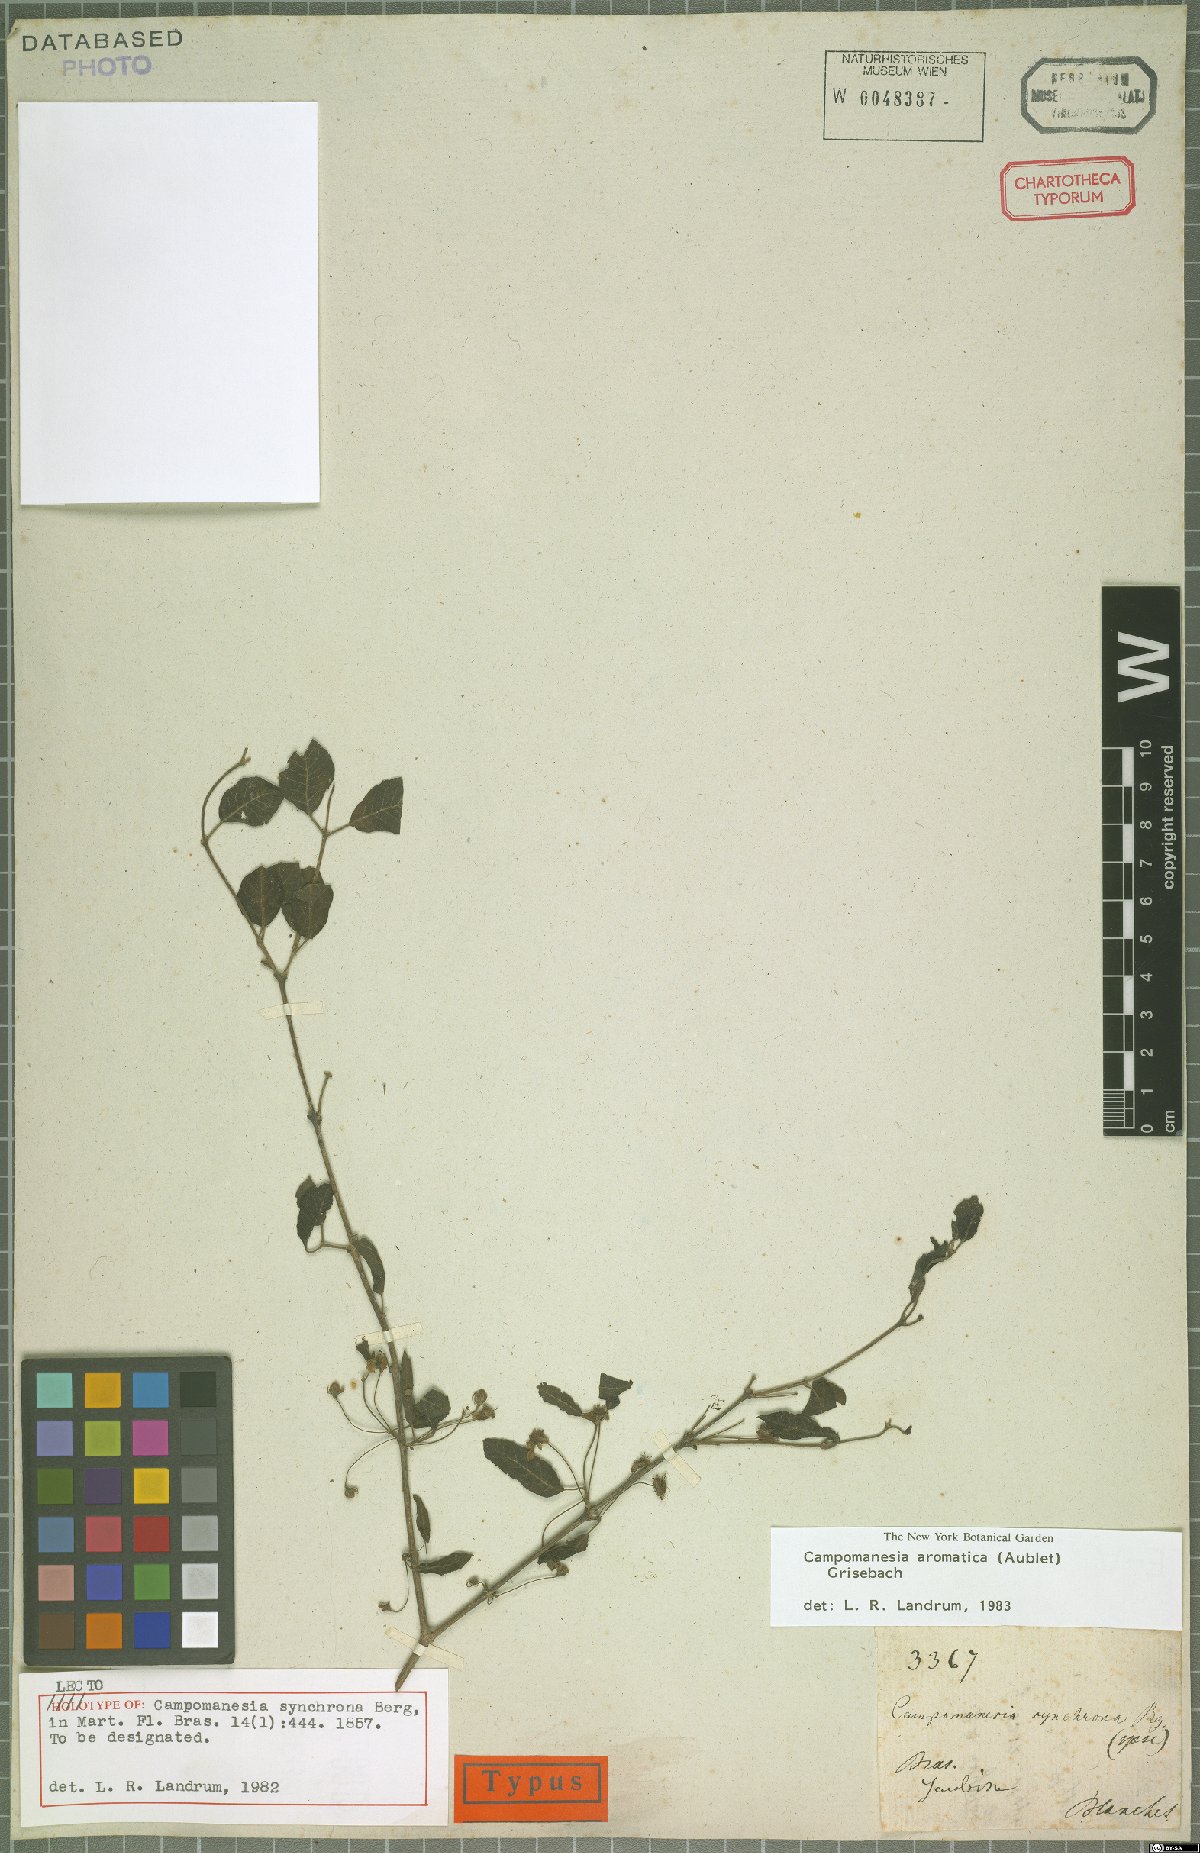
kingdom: Plantae
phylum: Tracheophyta
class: Magnoliopsida
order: Myrtales
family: Myrtaceae
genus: Campomanesia
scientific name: Campomanesia aromatica
